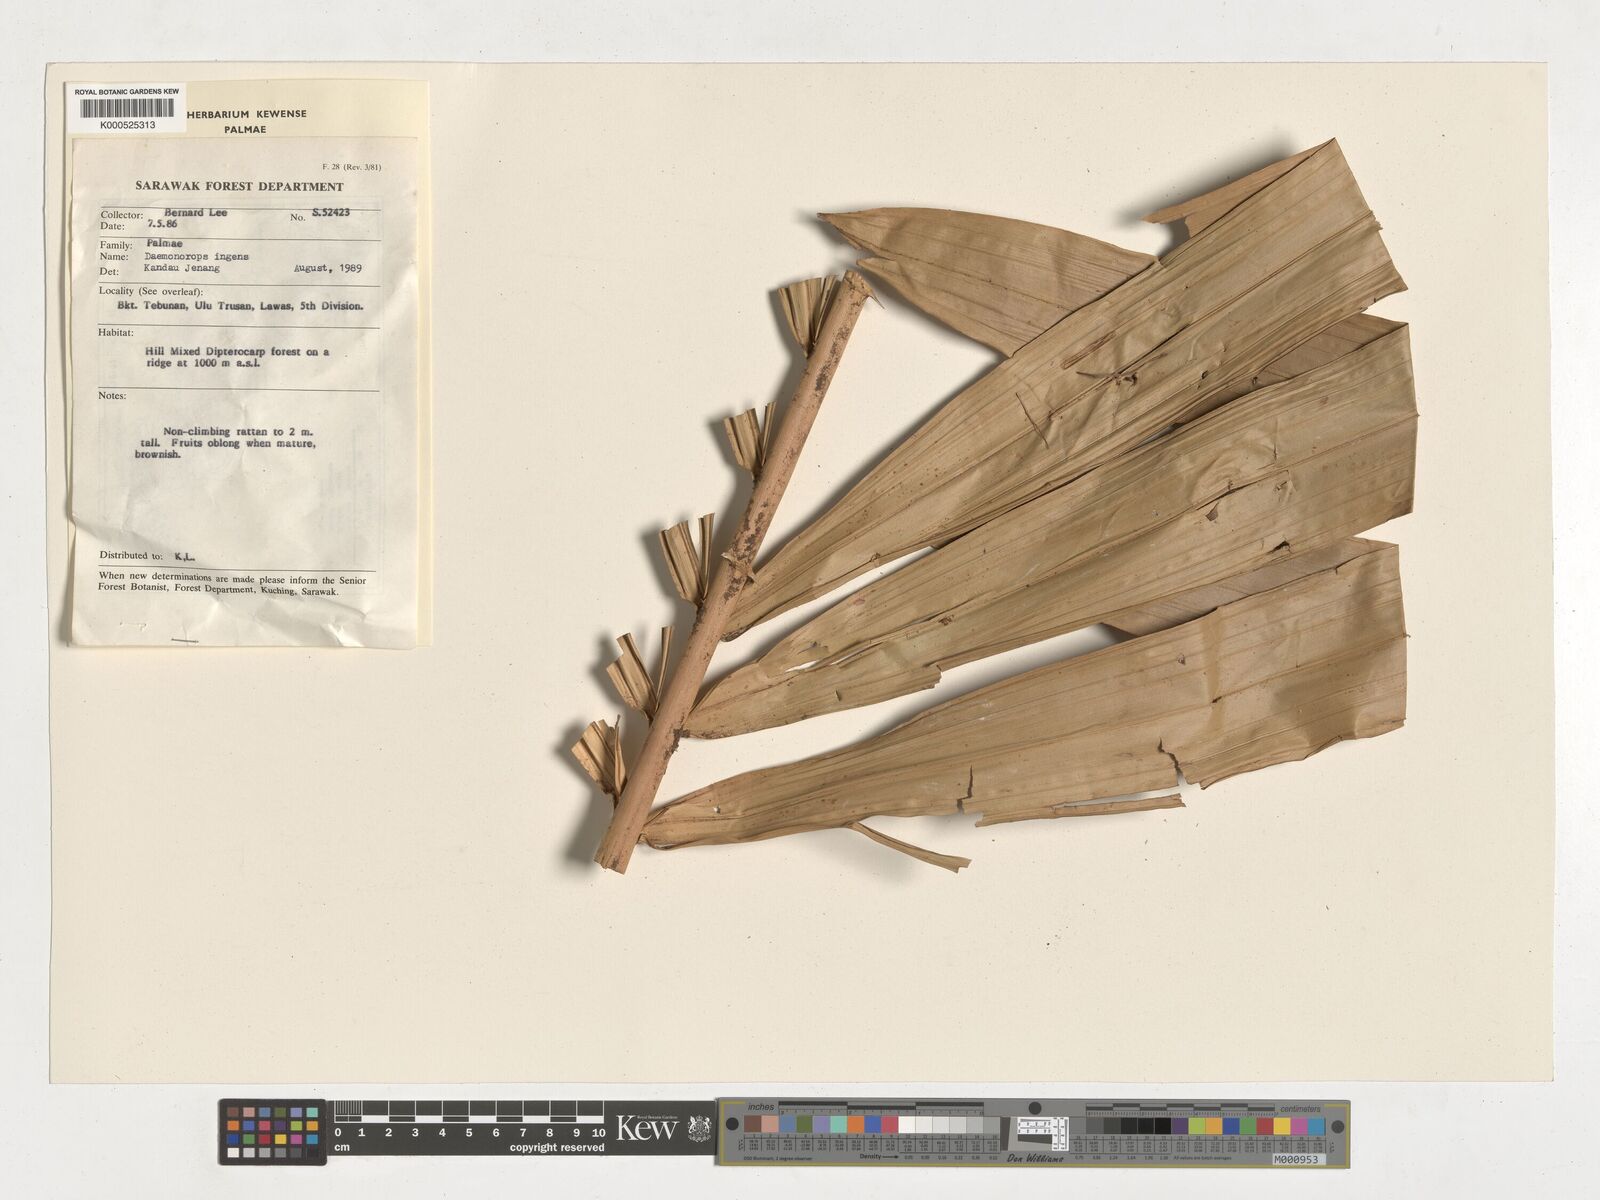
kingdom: Plantae
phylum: Tracheophyta
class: Liliopsida
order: Arecales
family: Arecaceae
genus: Calamus
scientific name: Calamus ingens
